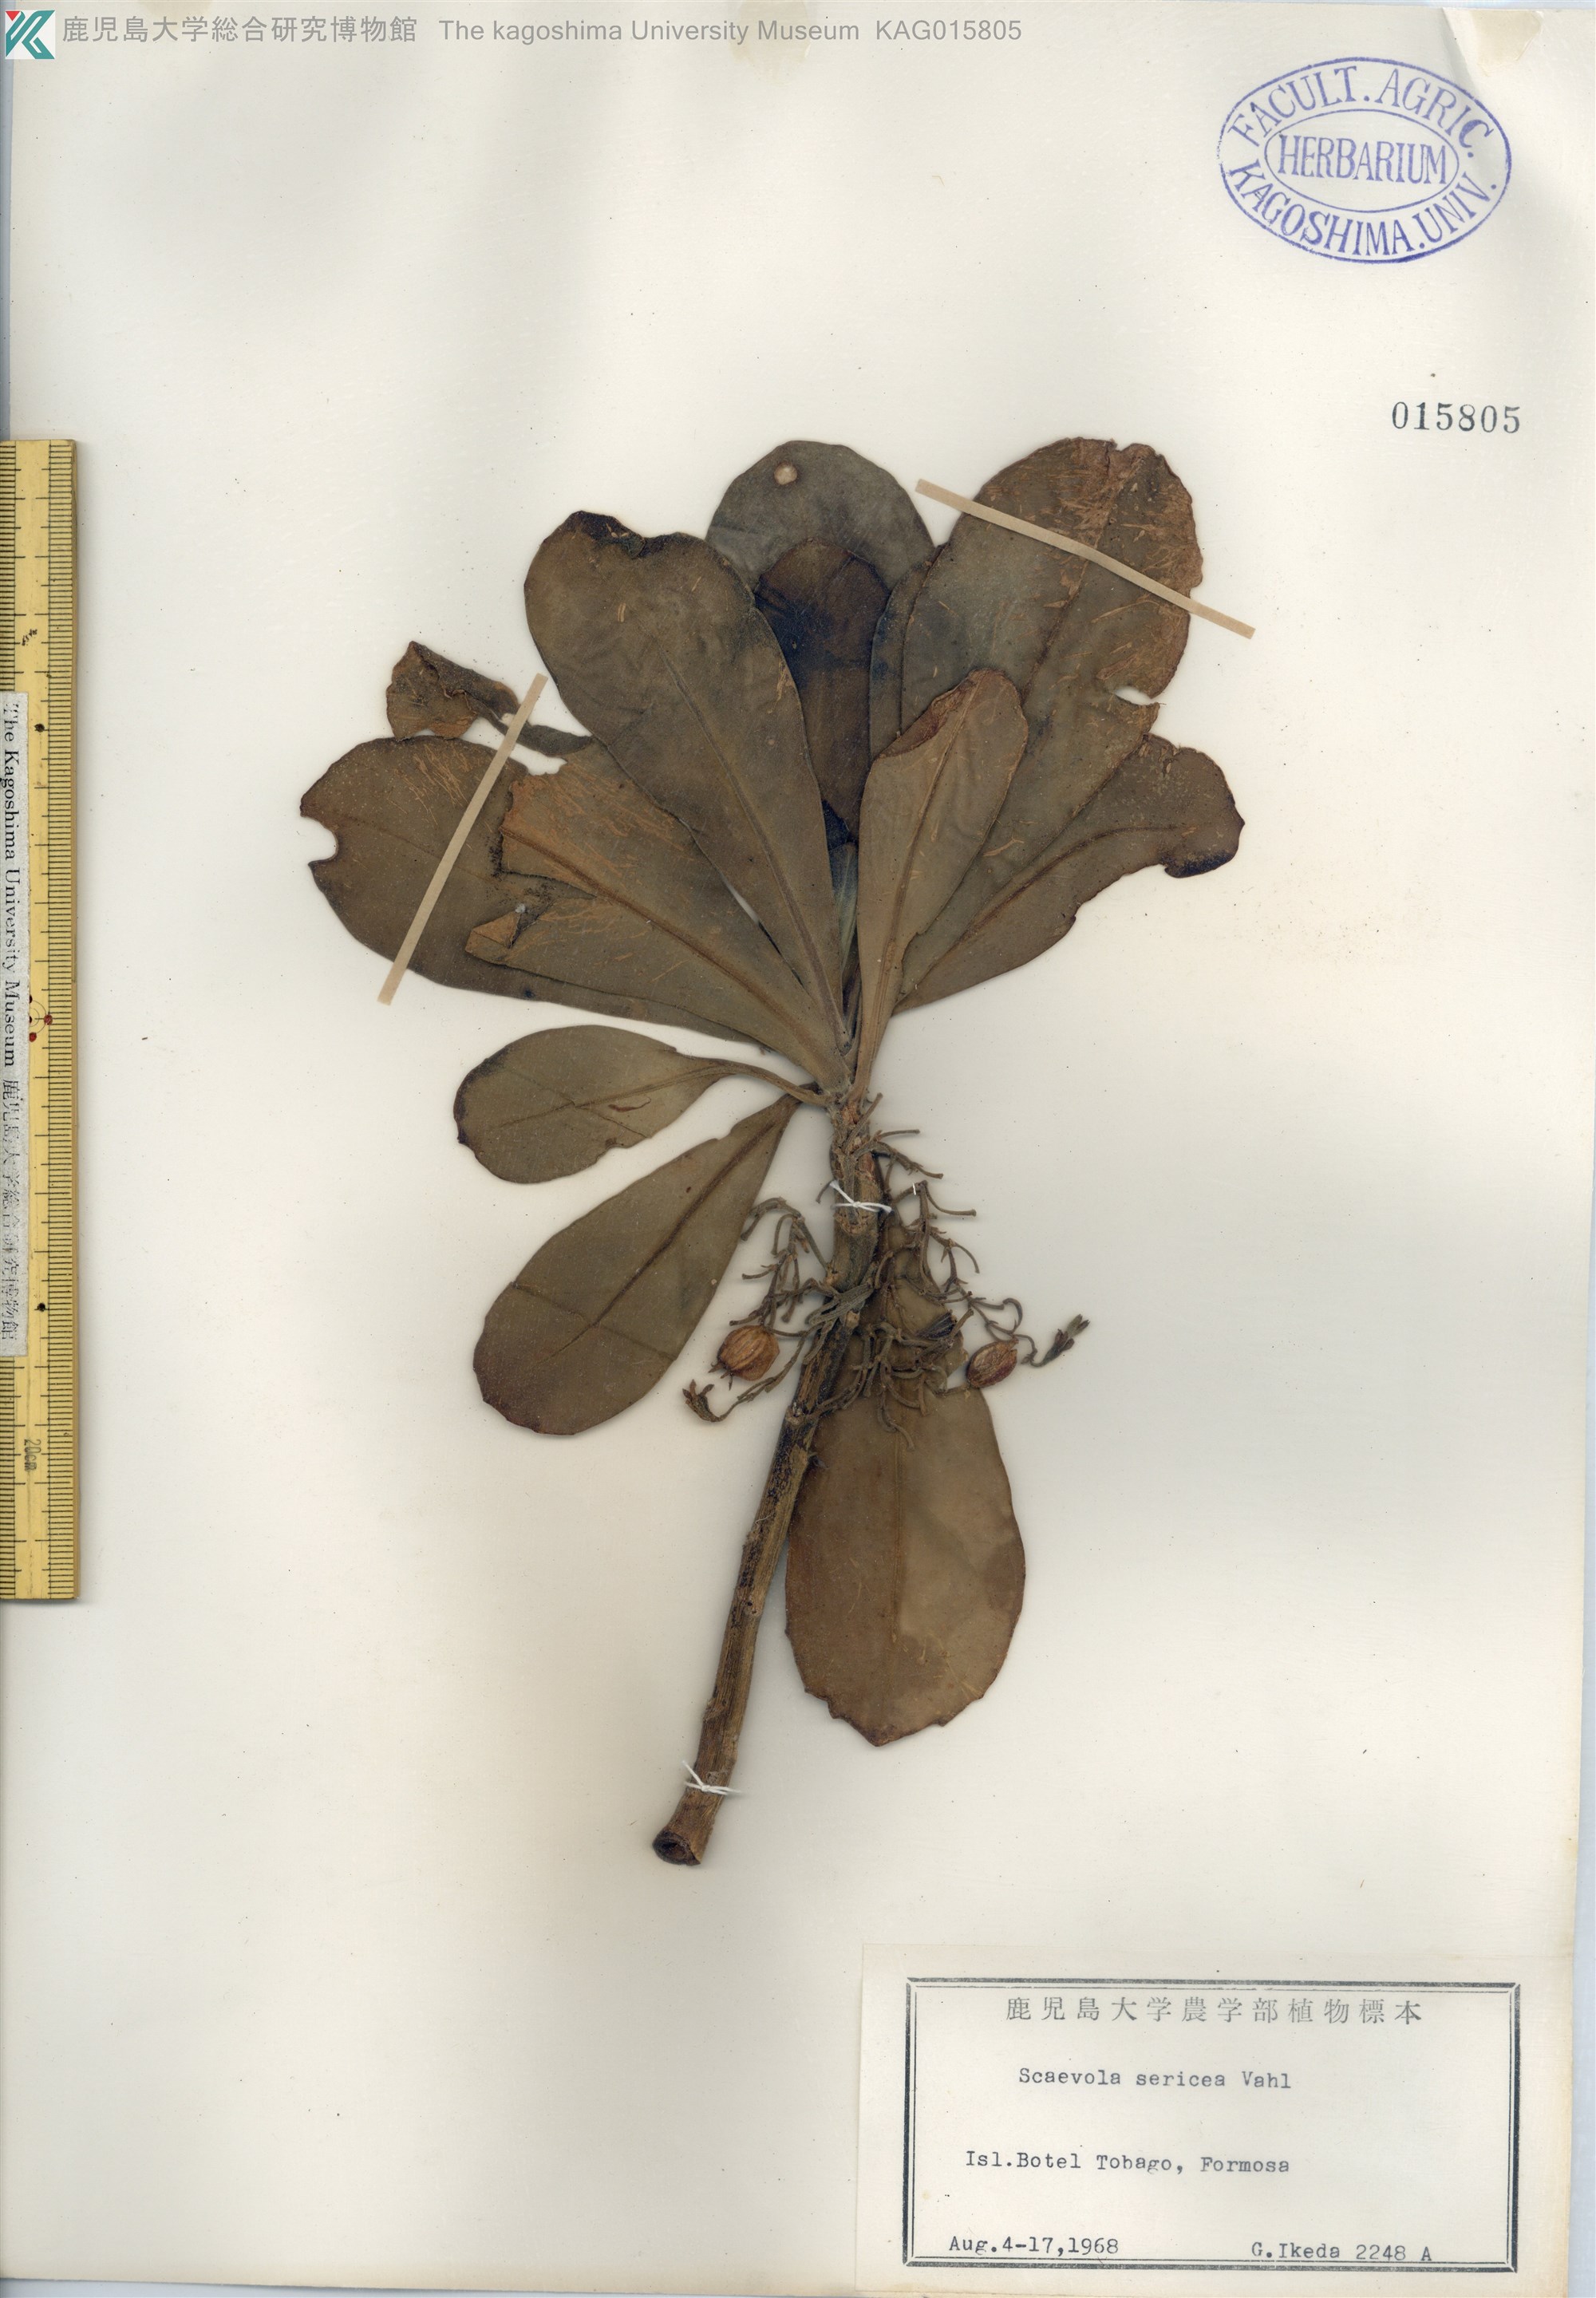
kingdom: Plantae
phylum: Tracheophyta
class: Magnoliopsida
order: Asterales
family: Goodeniaceae
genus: Scaevola
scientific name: Scaevola taccada
